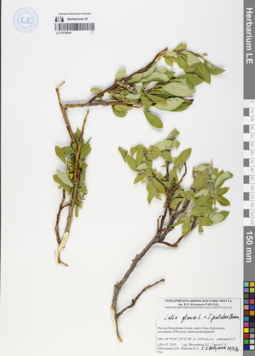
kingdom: Plantae
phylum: Tracheophyta
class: Magnoliopsida
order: Malpighiales
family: Salicaceae
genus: Salix
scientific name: Salix glauca
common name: Glaucous willow
